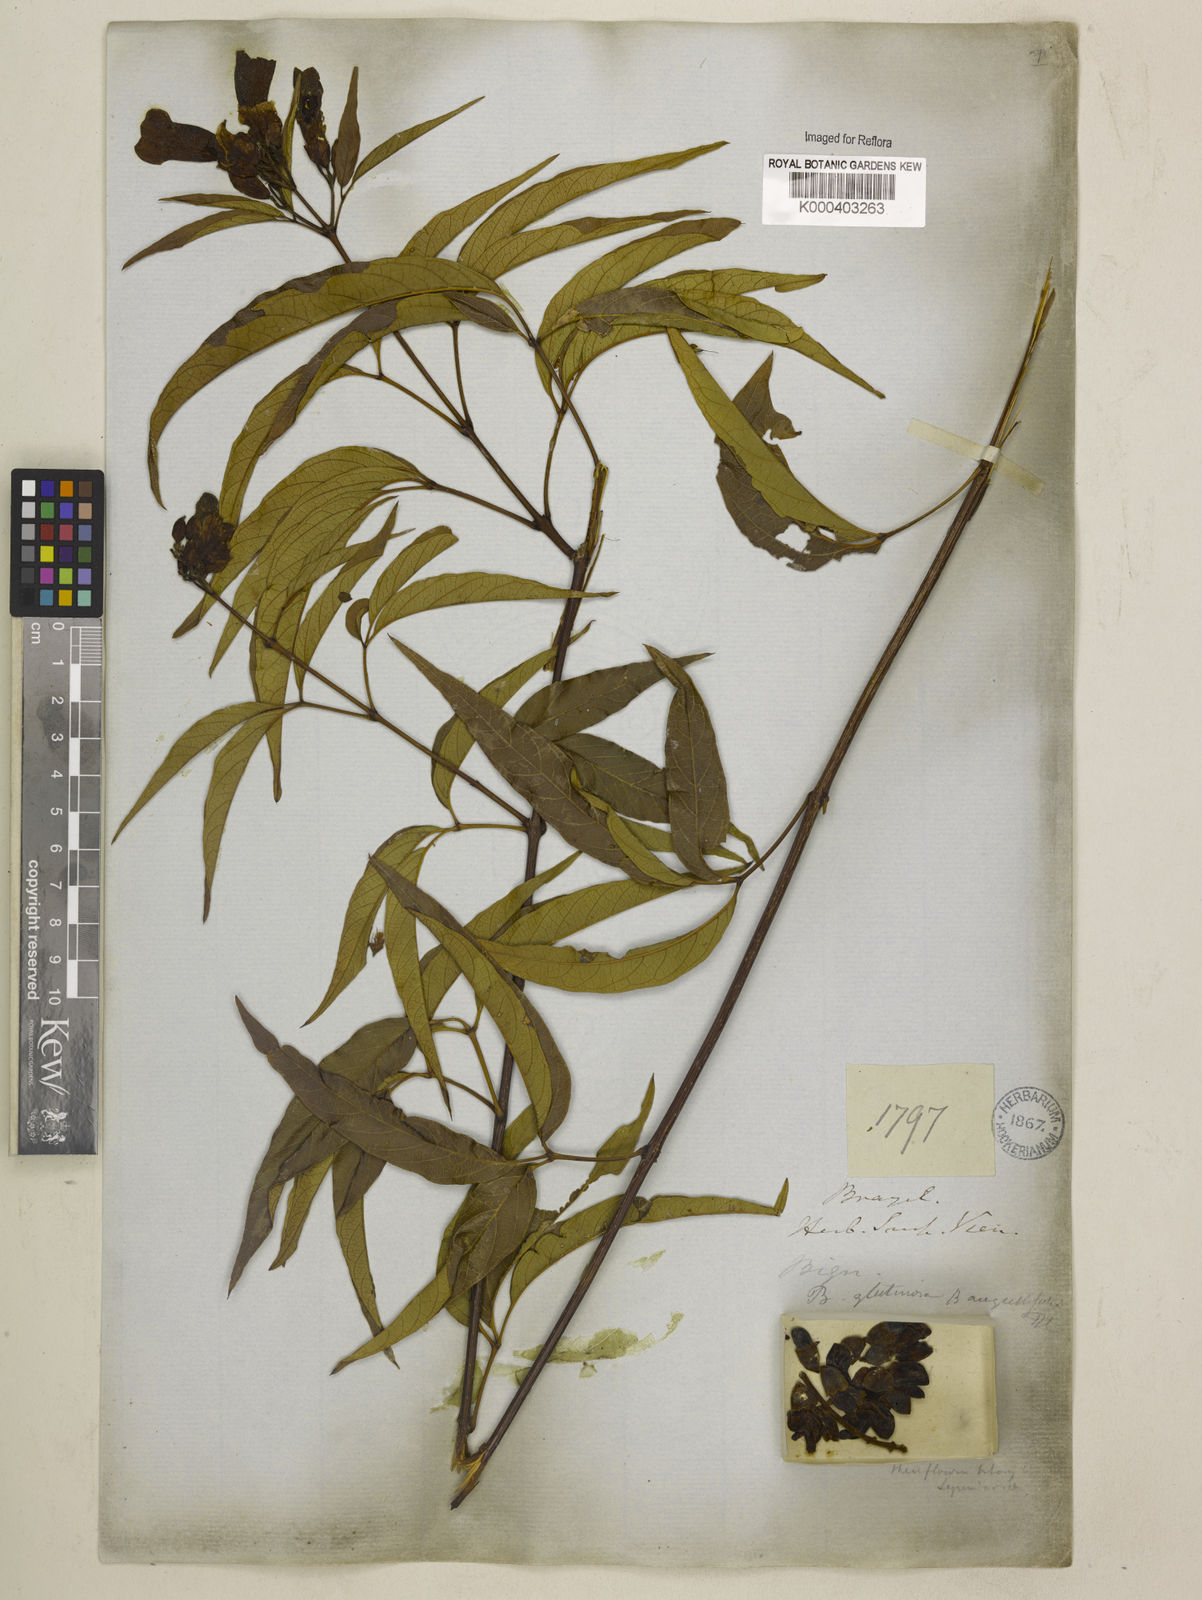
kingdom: Plantae
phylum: Tracheophyta
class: Magnoliopsida
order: Lamiales
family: Bignoniaceae
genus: Cuspidaria
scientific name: Cuspidaria sceptrum
